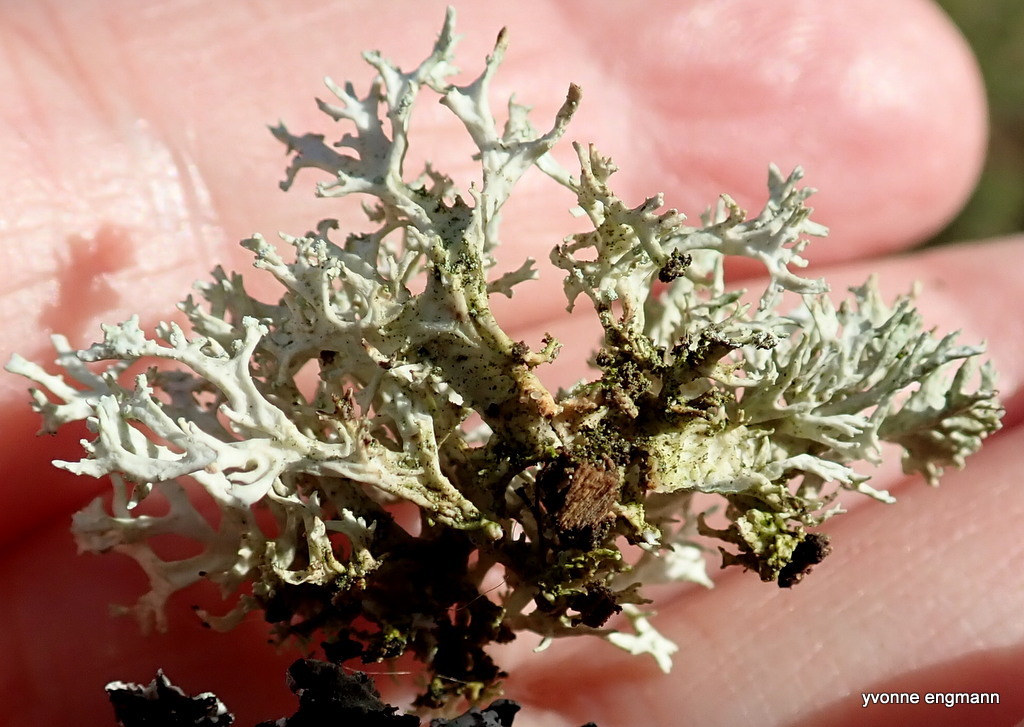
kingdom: Fungi
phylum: Ascomycota
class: Lecanoromycetes
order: Lecanorales
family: Parmeliaceae
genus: Evernia
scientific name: Evernia prunastri
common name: almindelig slåenlav
